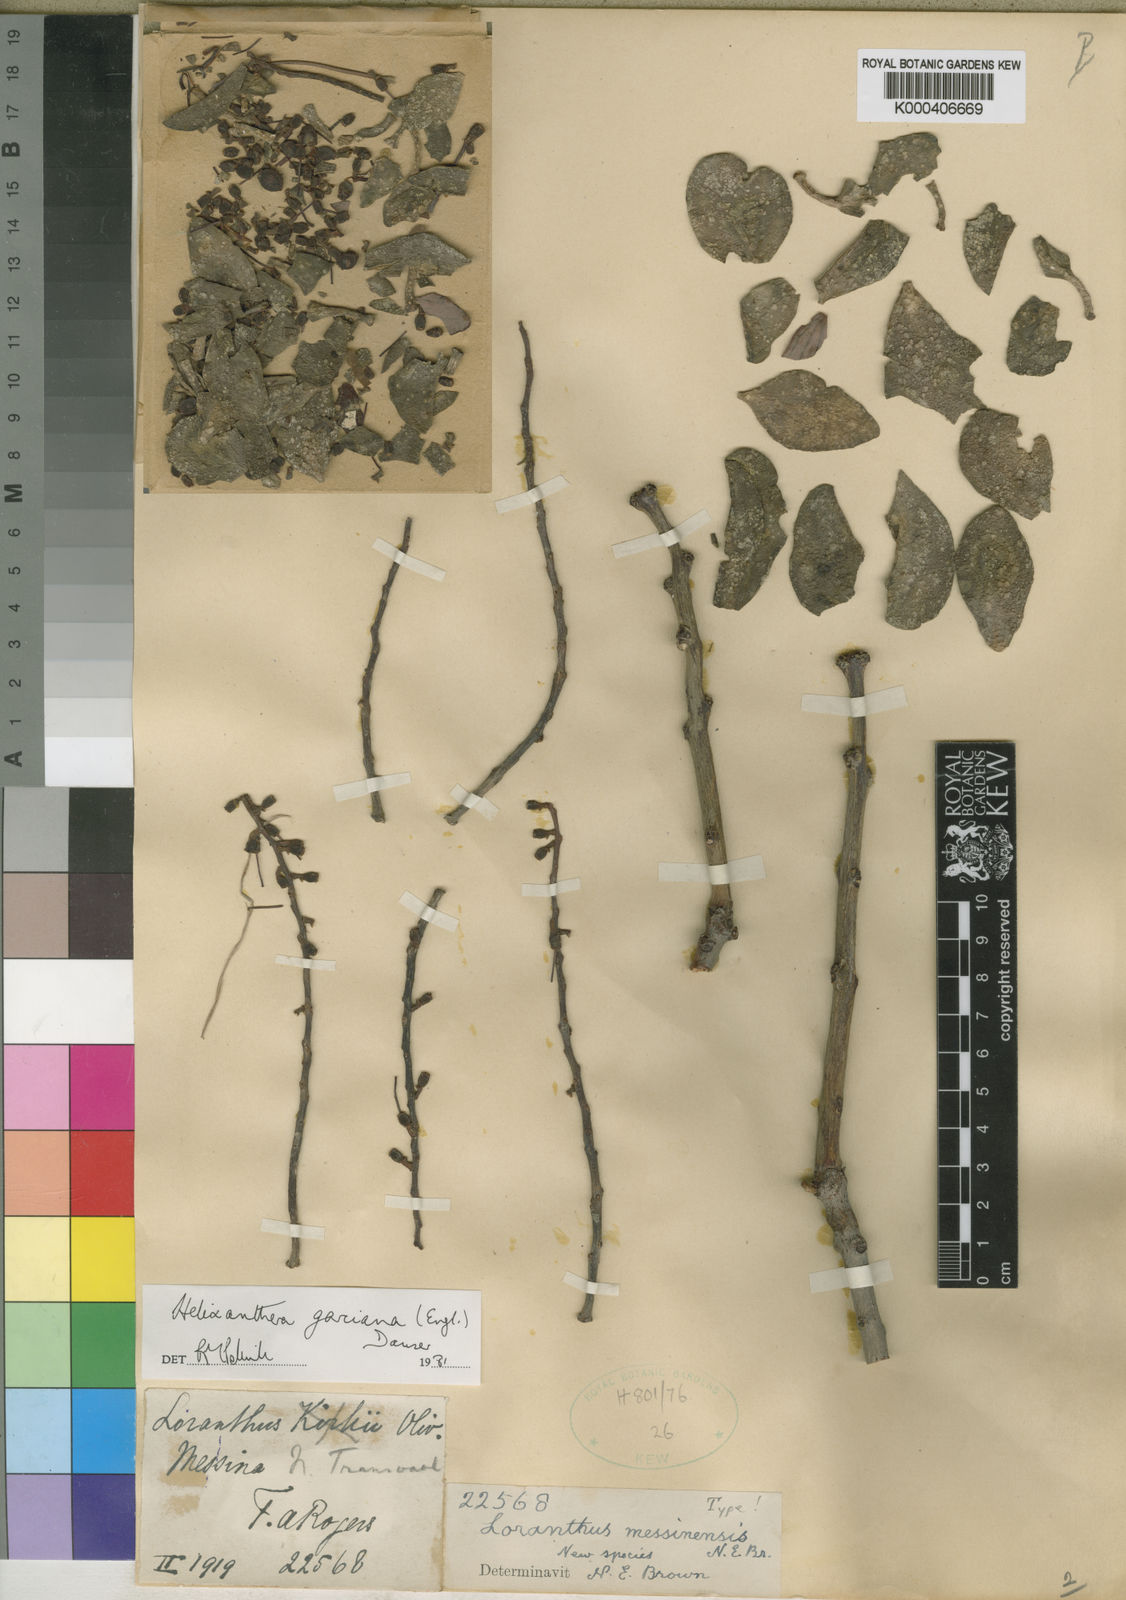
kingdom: Plantae
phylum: Tracheophyta
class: Magnoliopsida
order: Santalales
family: Loranthaceae
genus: Helixanthera
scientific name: Helixanthera garciana
